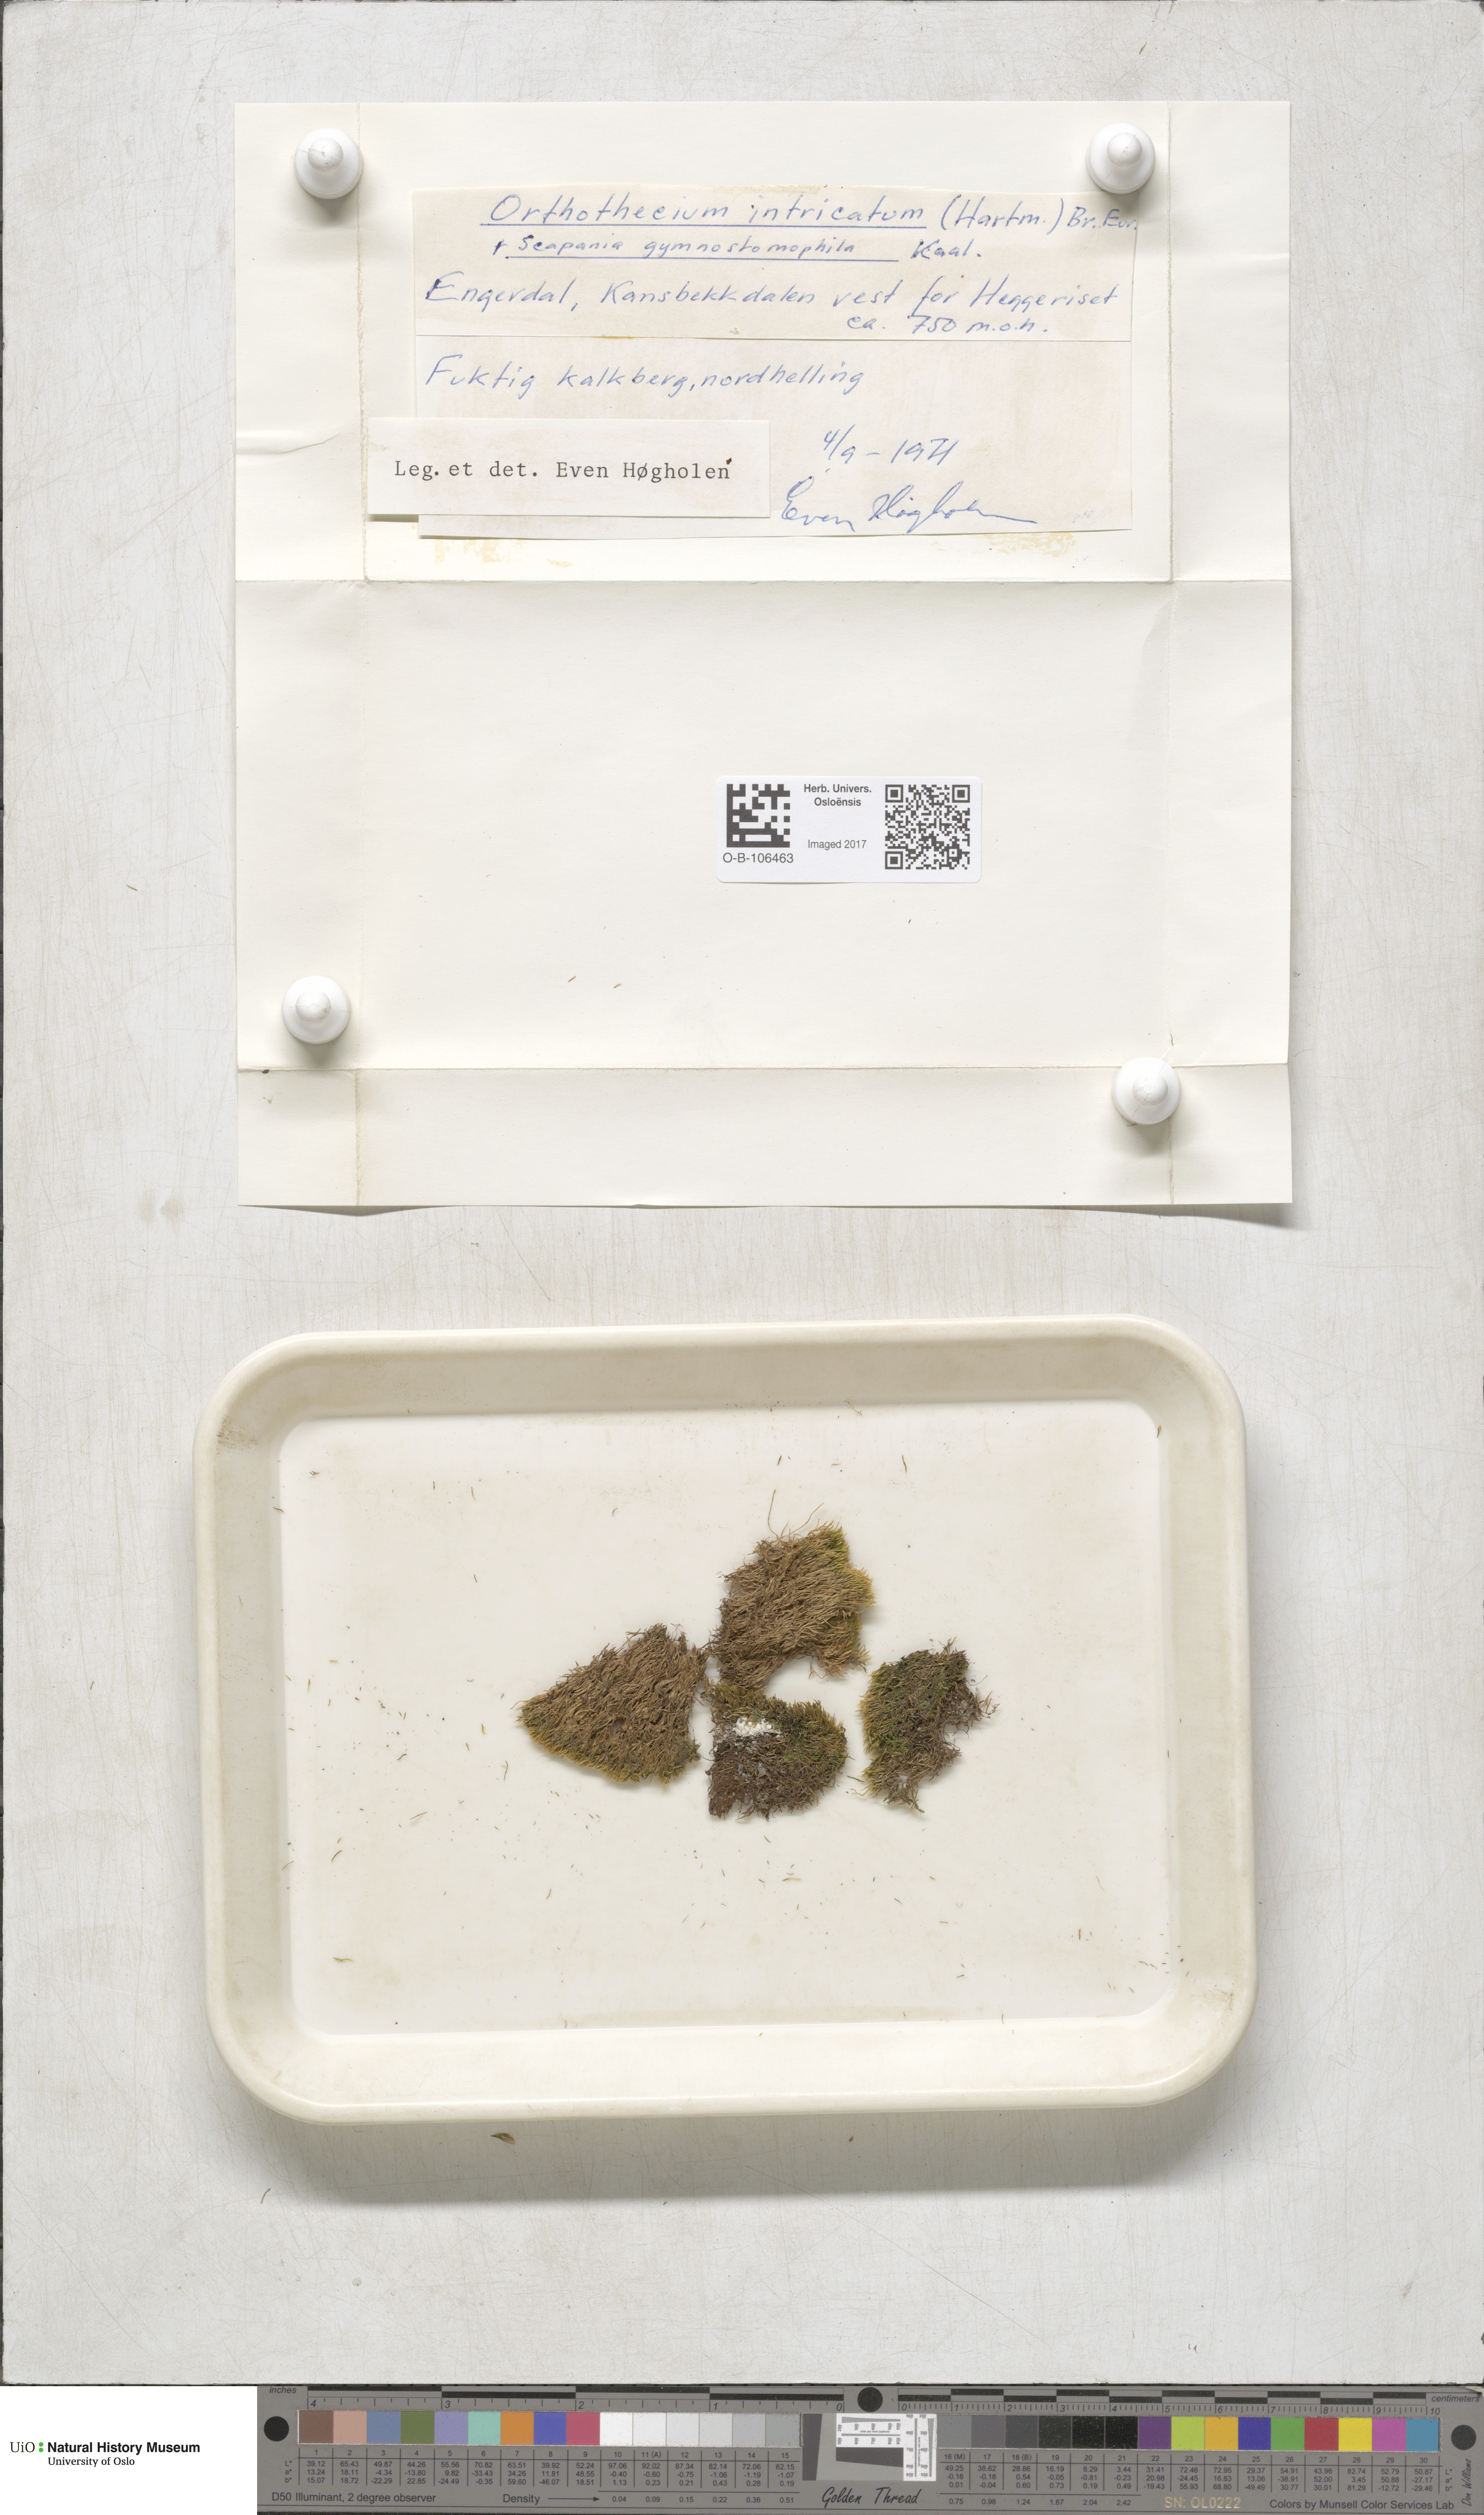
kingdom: Plantae
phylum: Bryophyta
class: Bryopsida
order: Hypnales
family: Plagiotheciaceae
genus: Orthothecium
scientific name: Orthothecium intricatum
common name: Fine-leaved erect-capsule moss
